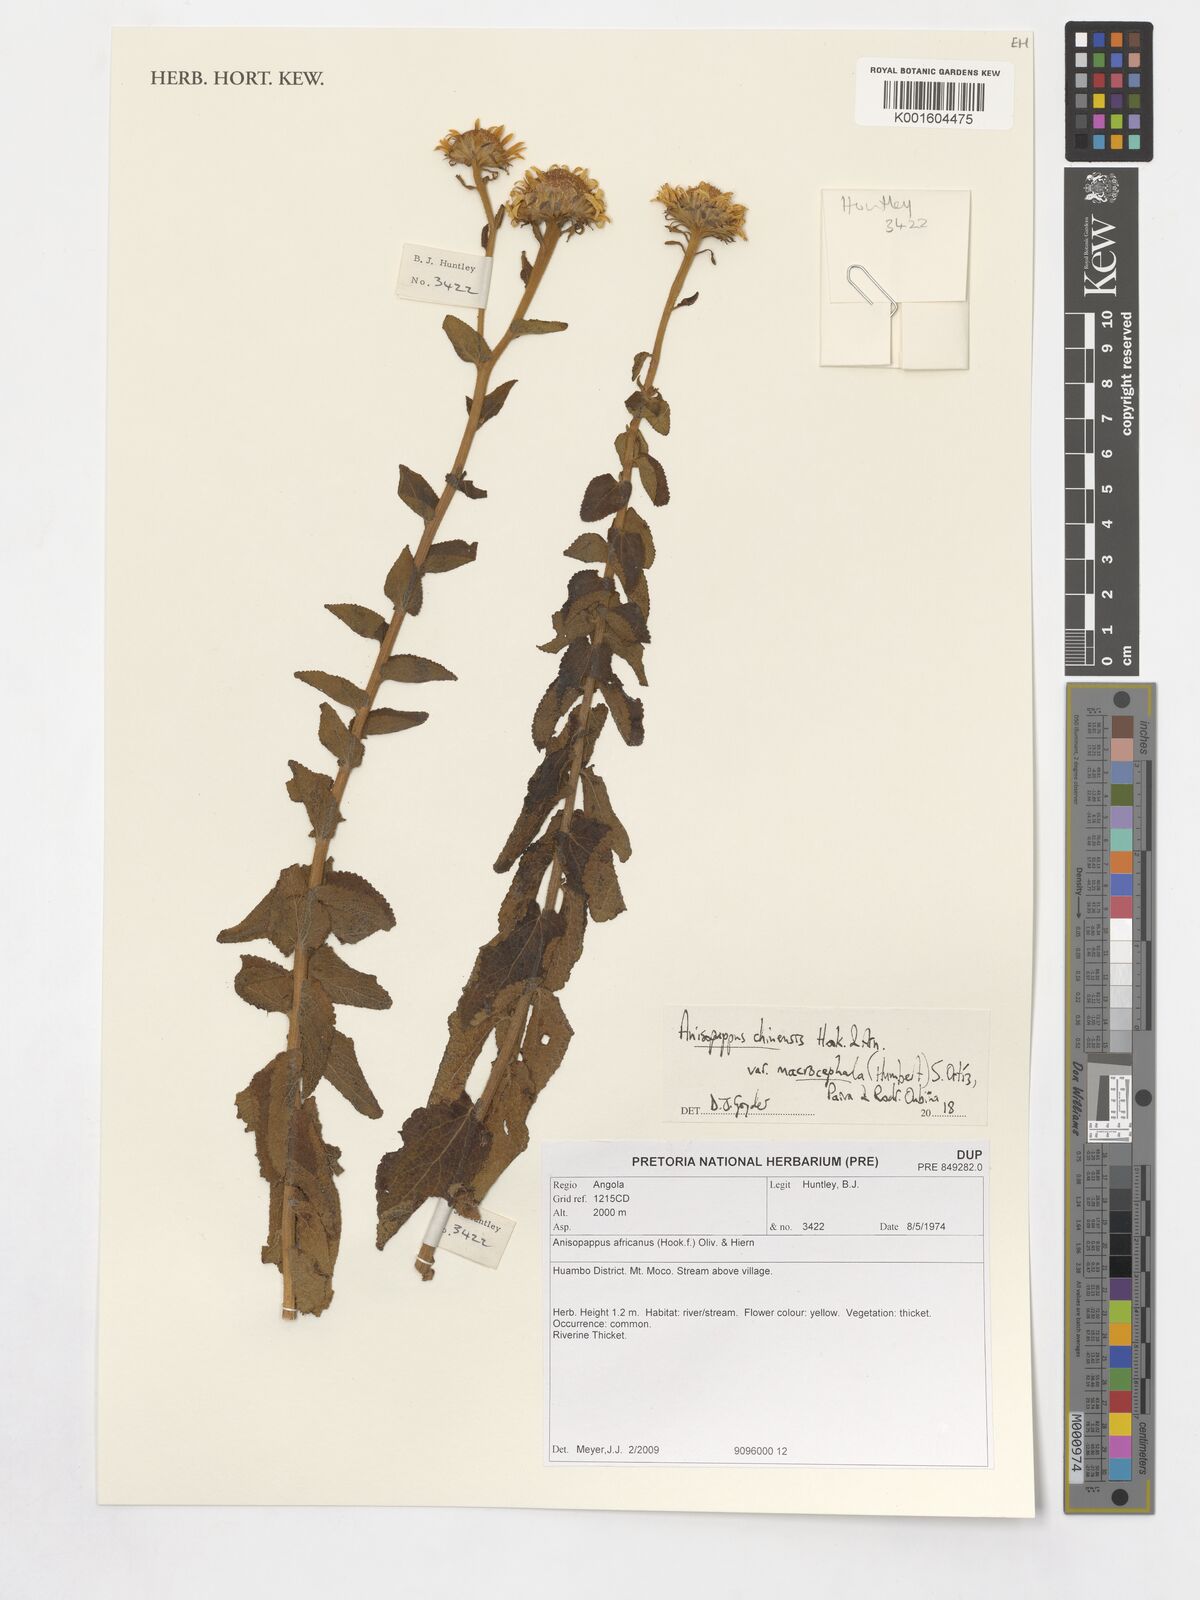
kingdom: Plantae
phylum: Tracheophyta
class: Magnoliopsida
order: Asterales
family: Asteraceae
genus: Anisopappus
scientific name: Anisopappus africanus
